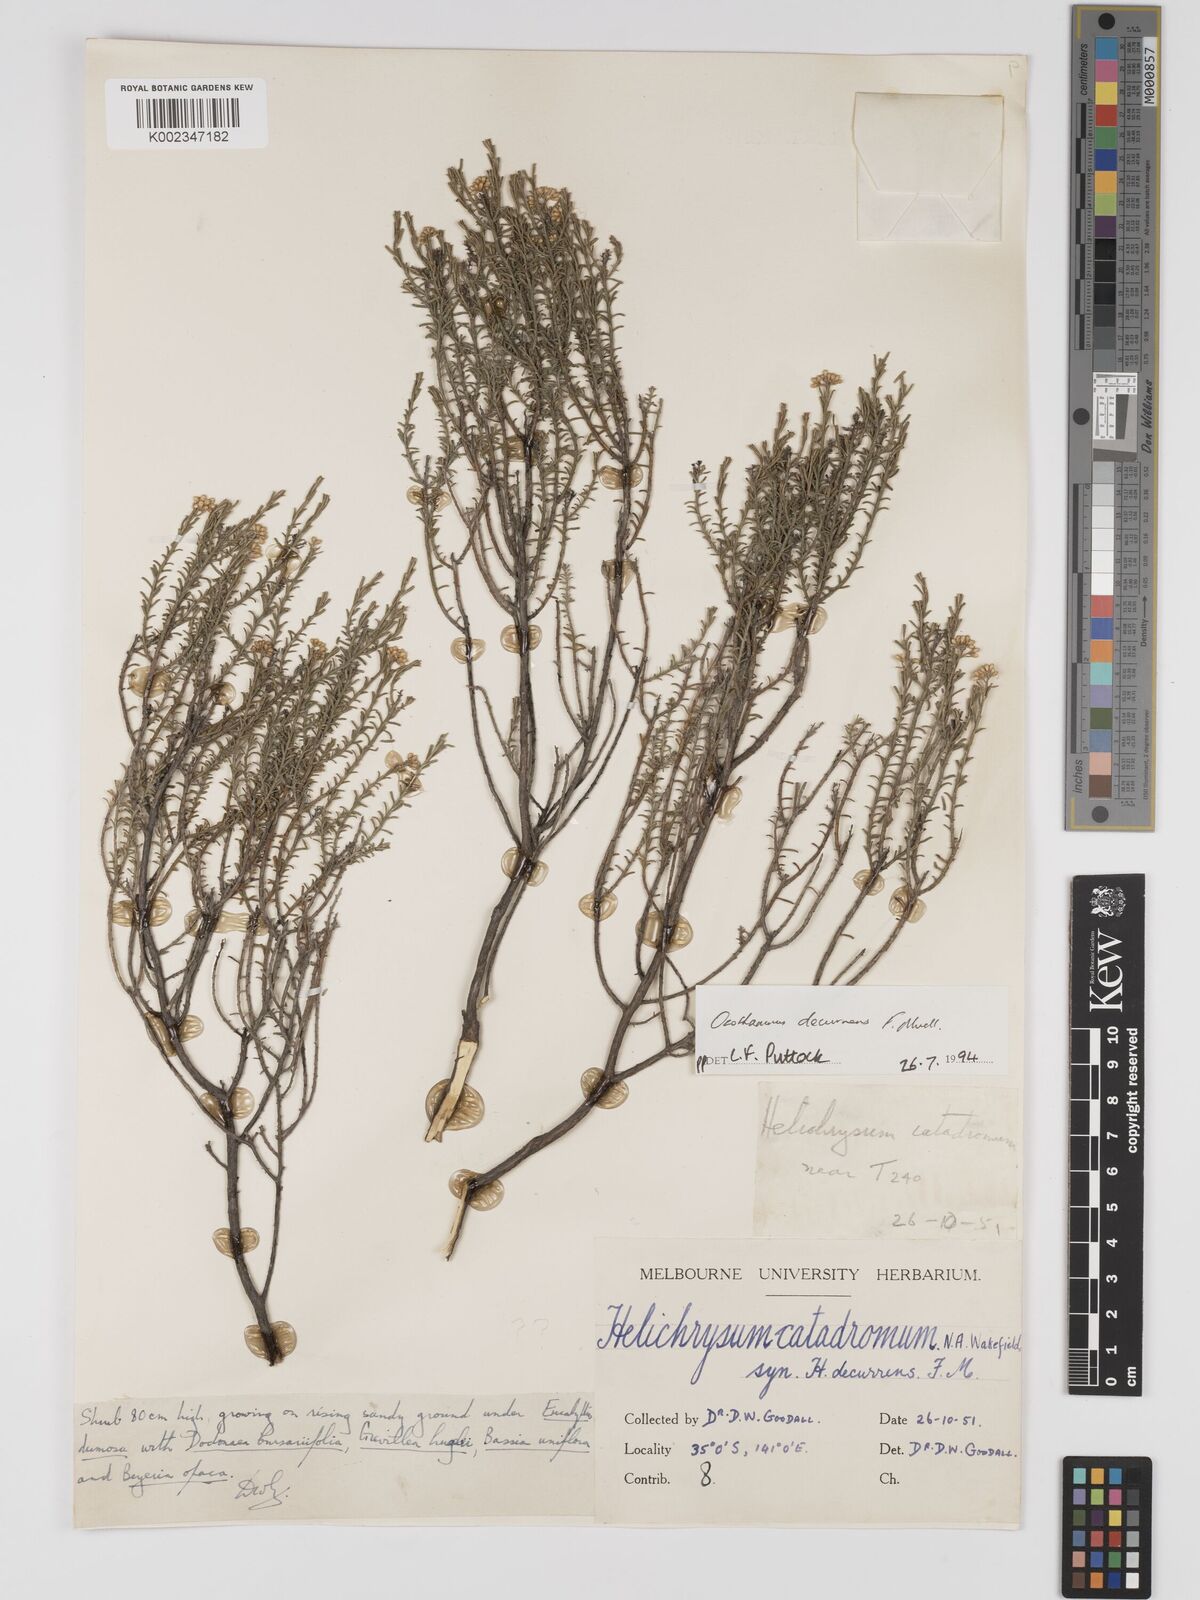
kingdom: Plantae
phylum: Tracheophyta
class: Magnoliopsida
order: Asterales
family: Asteraceae
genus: Ozothamnus
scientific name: Ozothamnus catadromus
